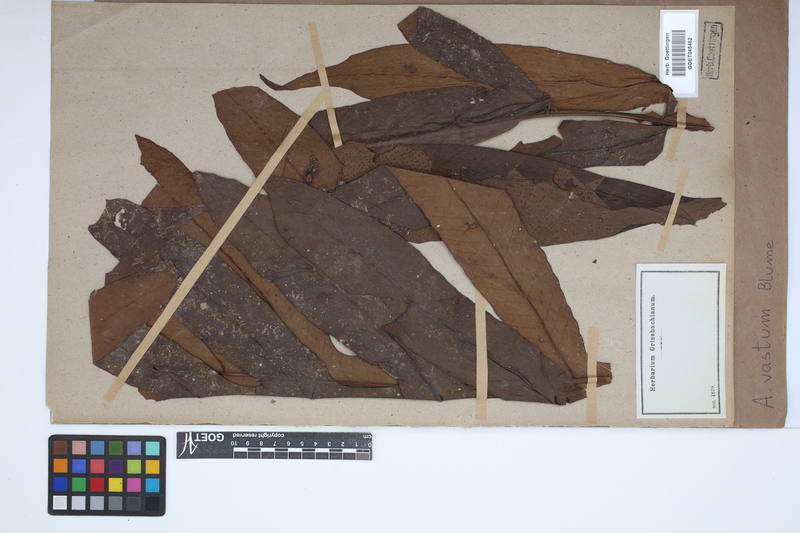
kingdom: Plantae
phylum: Tracheophyta
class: Polypodiopsida
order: Polypodiales
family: Tectariaceae
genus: Tectaria
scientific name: Tectaria vasta
